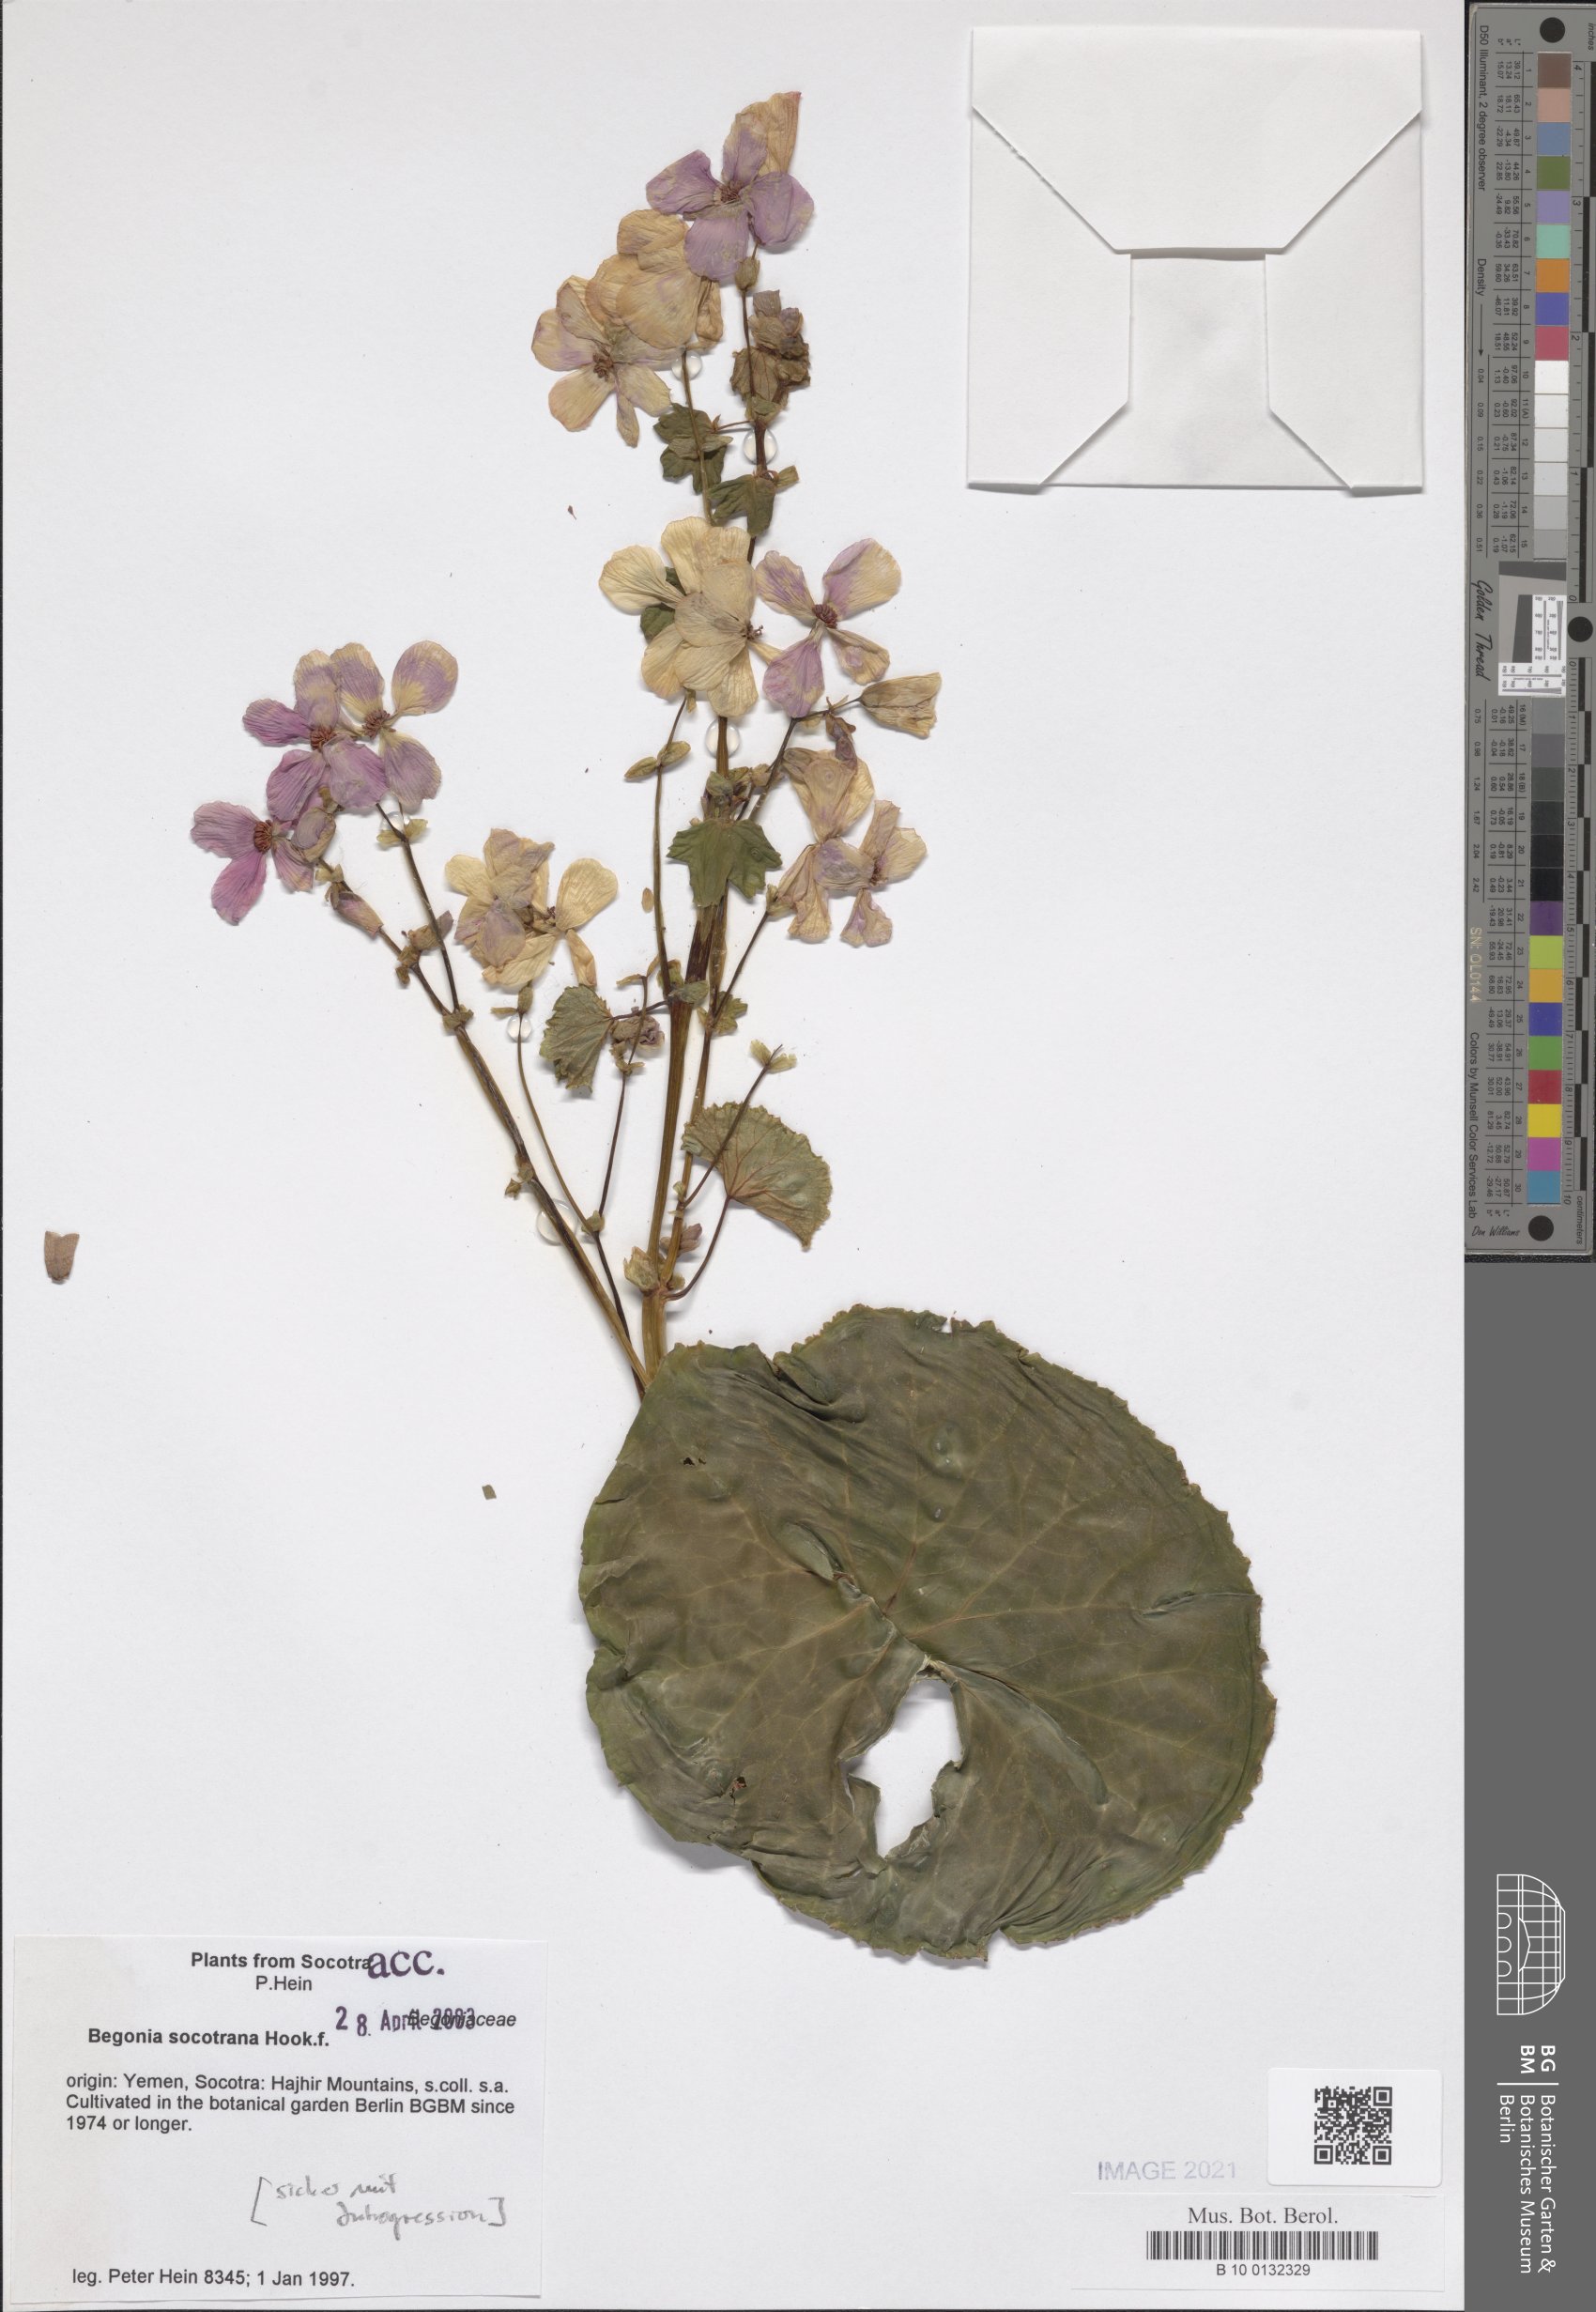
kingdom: Plantae
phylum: Tracheophyta
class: Magnoliopsida
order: Cucurbitales
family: Begoniaceae
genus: Begonia
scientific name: Begonia socotrana
